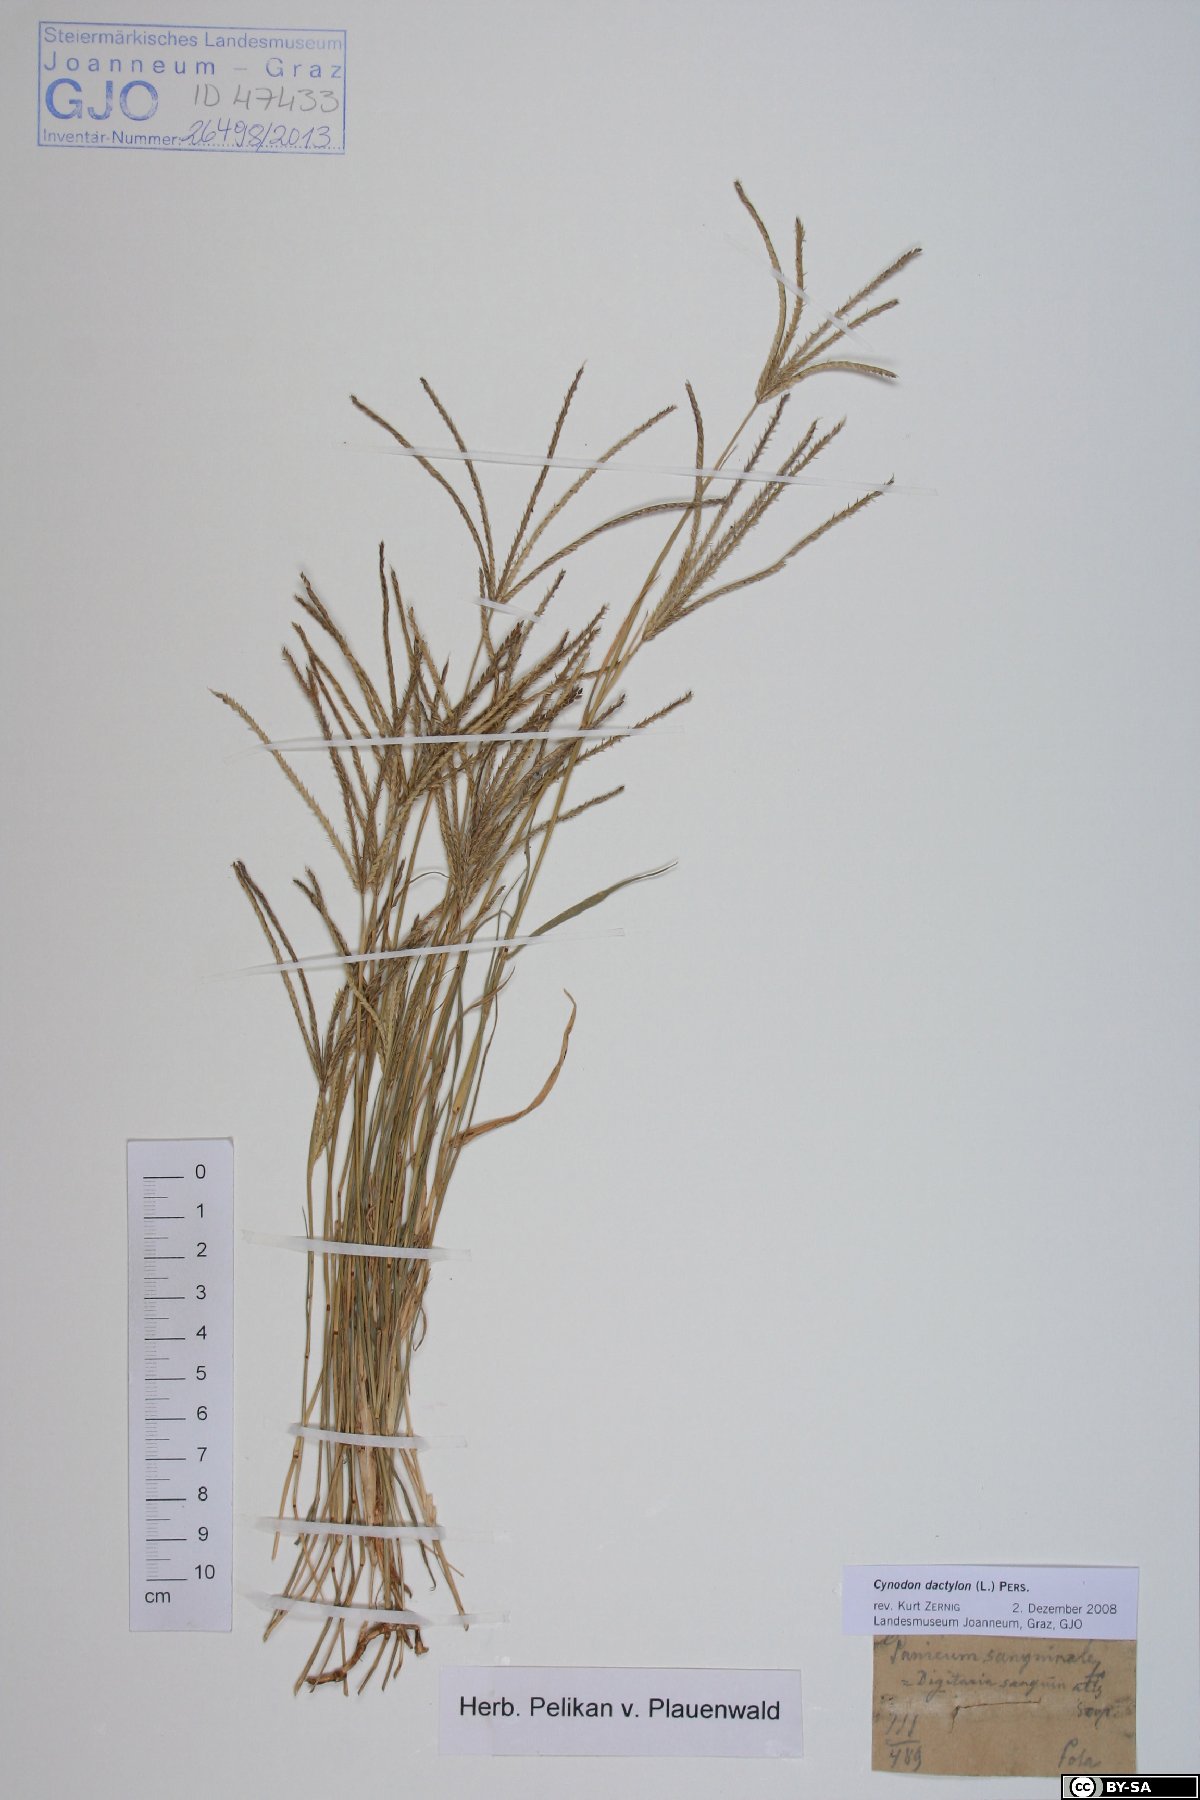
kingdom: Plantae
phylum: Tracheophyta
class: Liliopsida
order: Poales
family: Poaceae
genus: Cynodon
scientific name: Cynodon dactylon
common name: Bermuda grass
